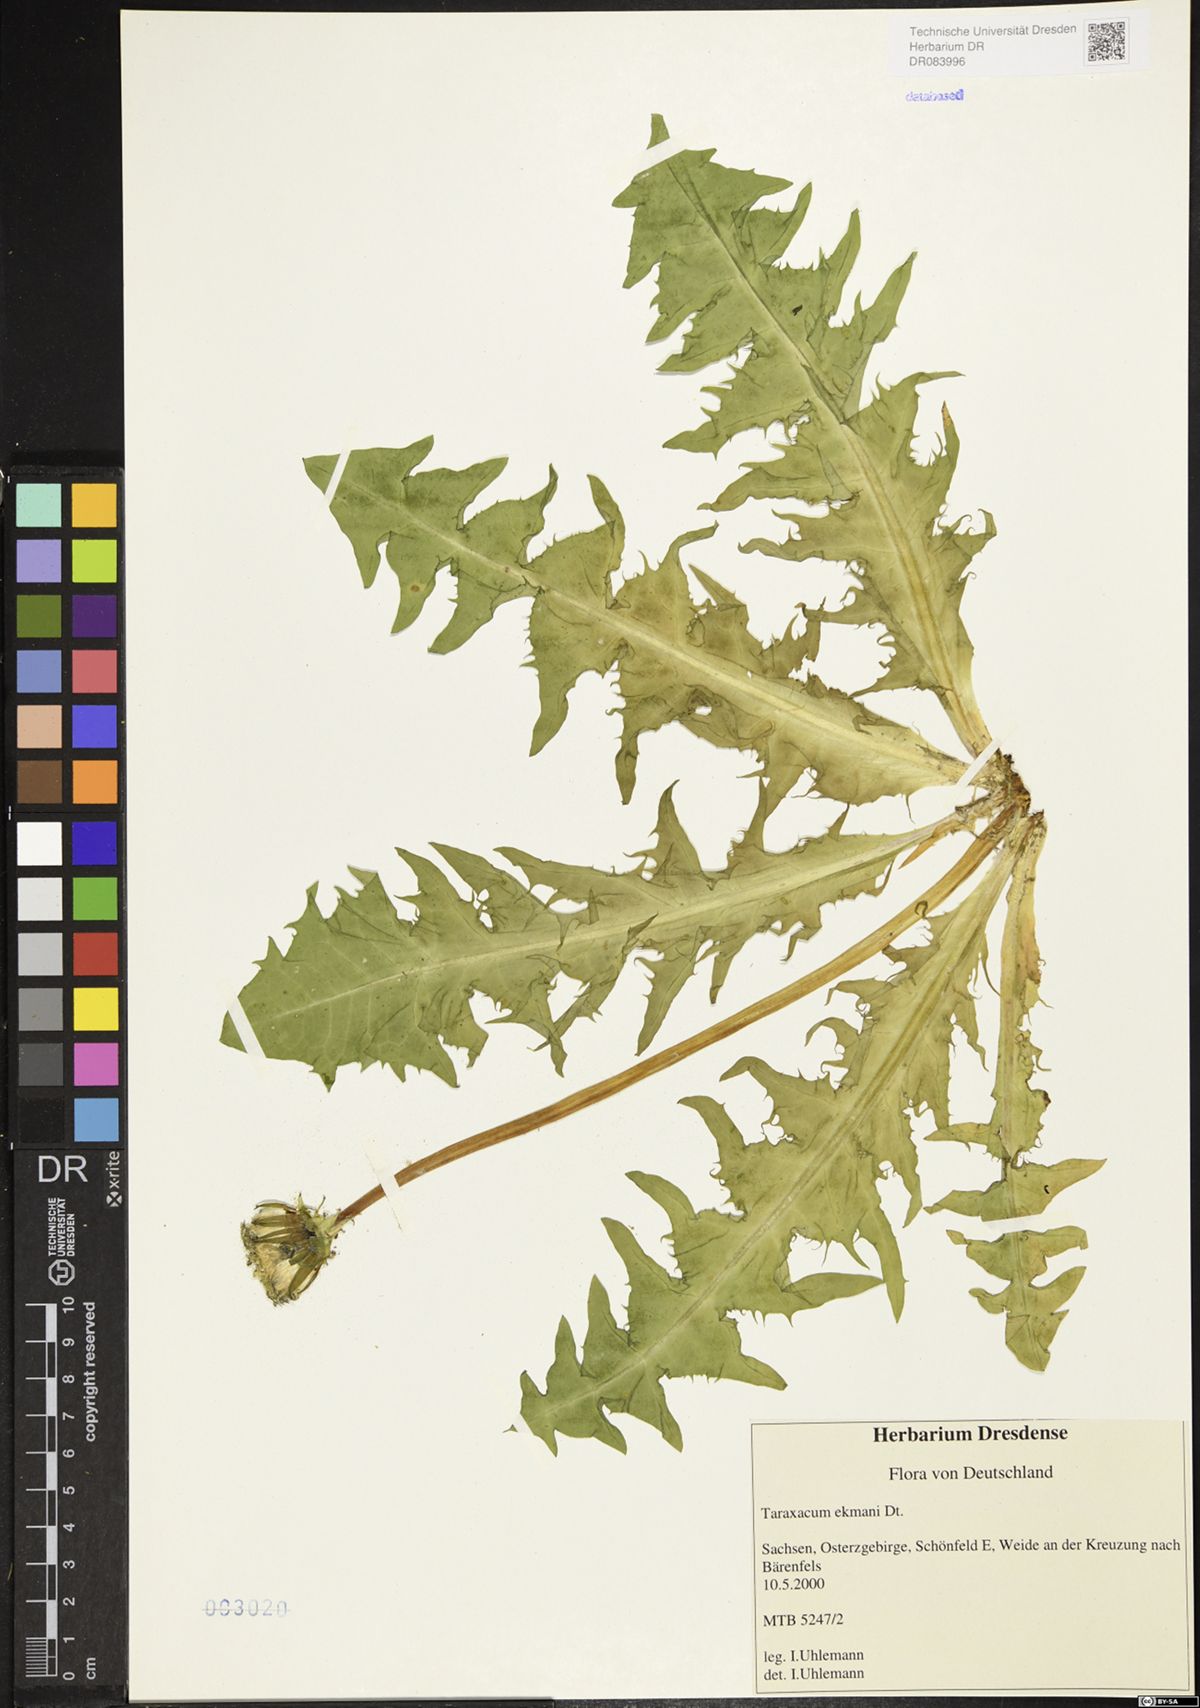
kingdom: Plantae
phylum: Tracheophyta
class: Magnoliopsida
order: Asterales
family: Asteraceae
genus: Taraxacum
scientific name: Taraxacum ekmanii
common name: Ekman's dandelion
